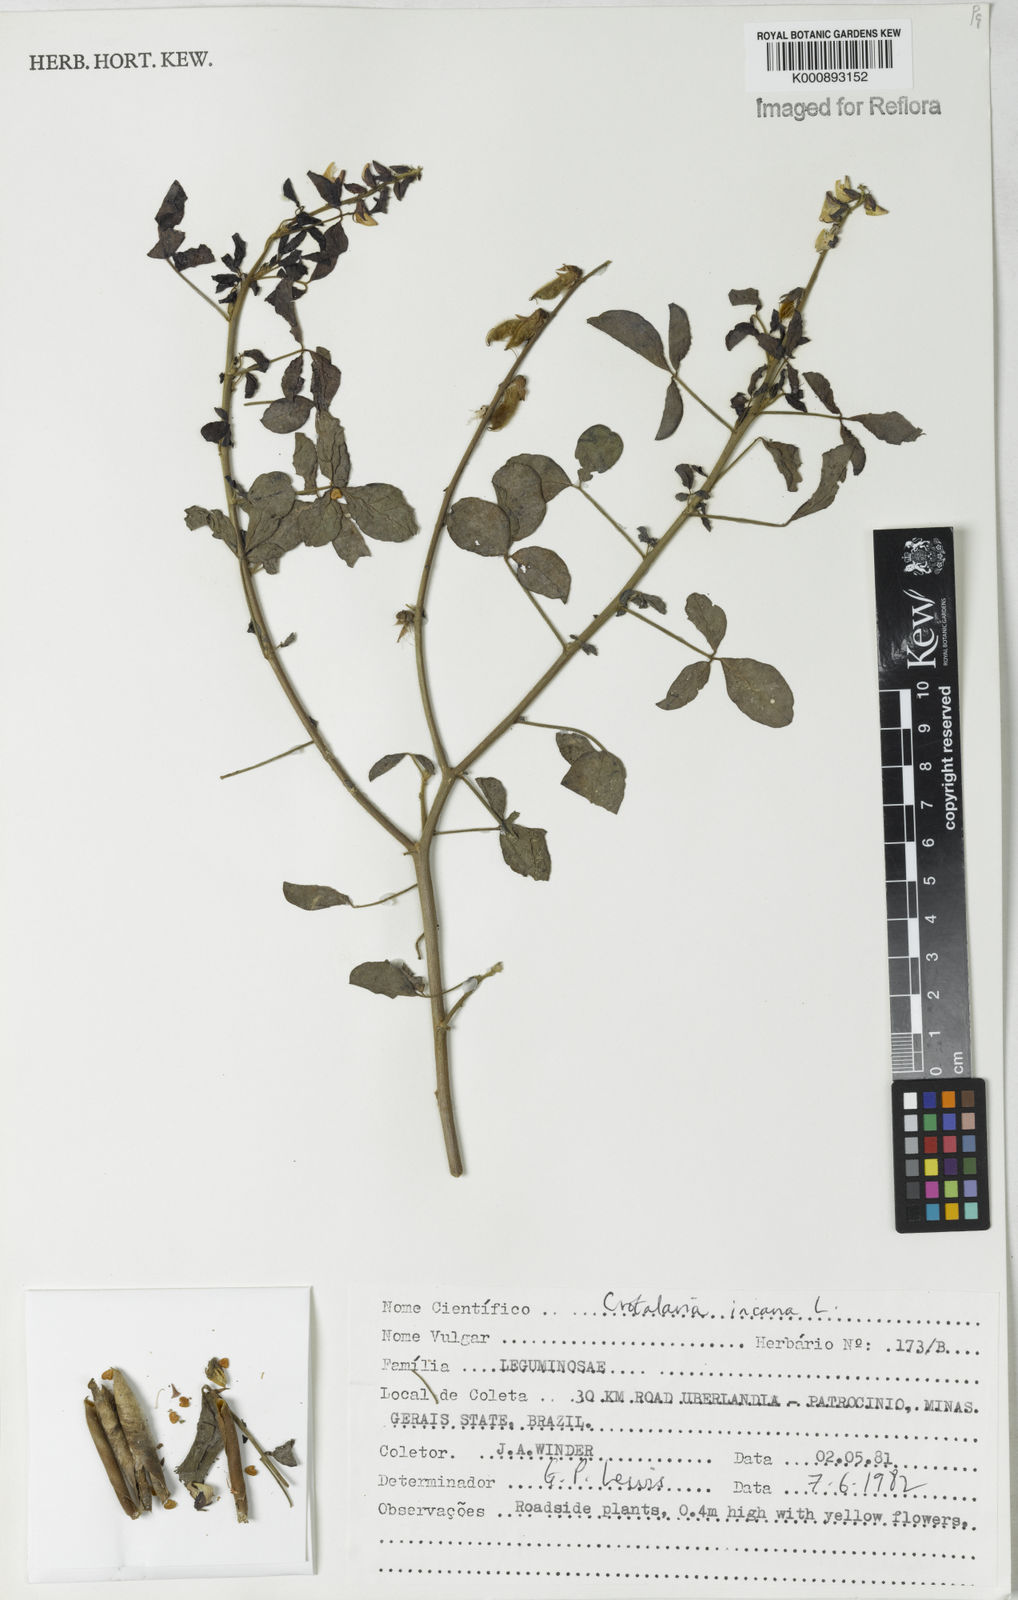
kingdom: Plantae
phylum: Tracheophyta
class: Magnoliopsida
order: Fabales
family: Fabaceae
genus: Crotalaria
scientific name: Crotalaria incana
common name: Shakeshake
